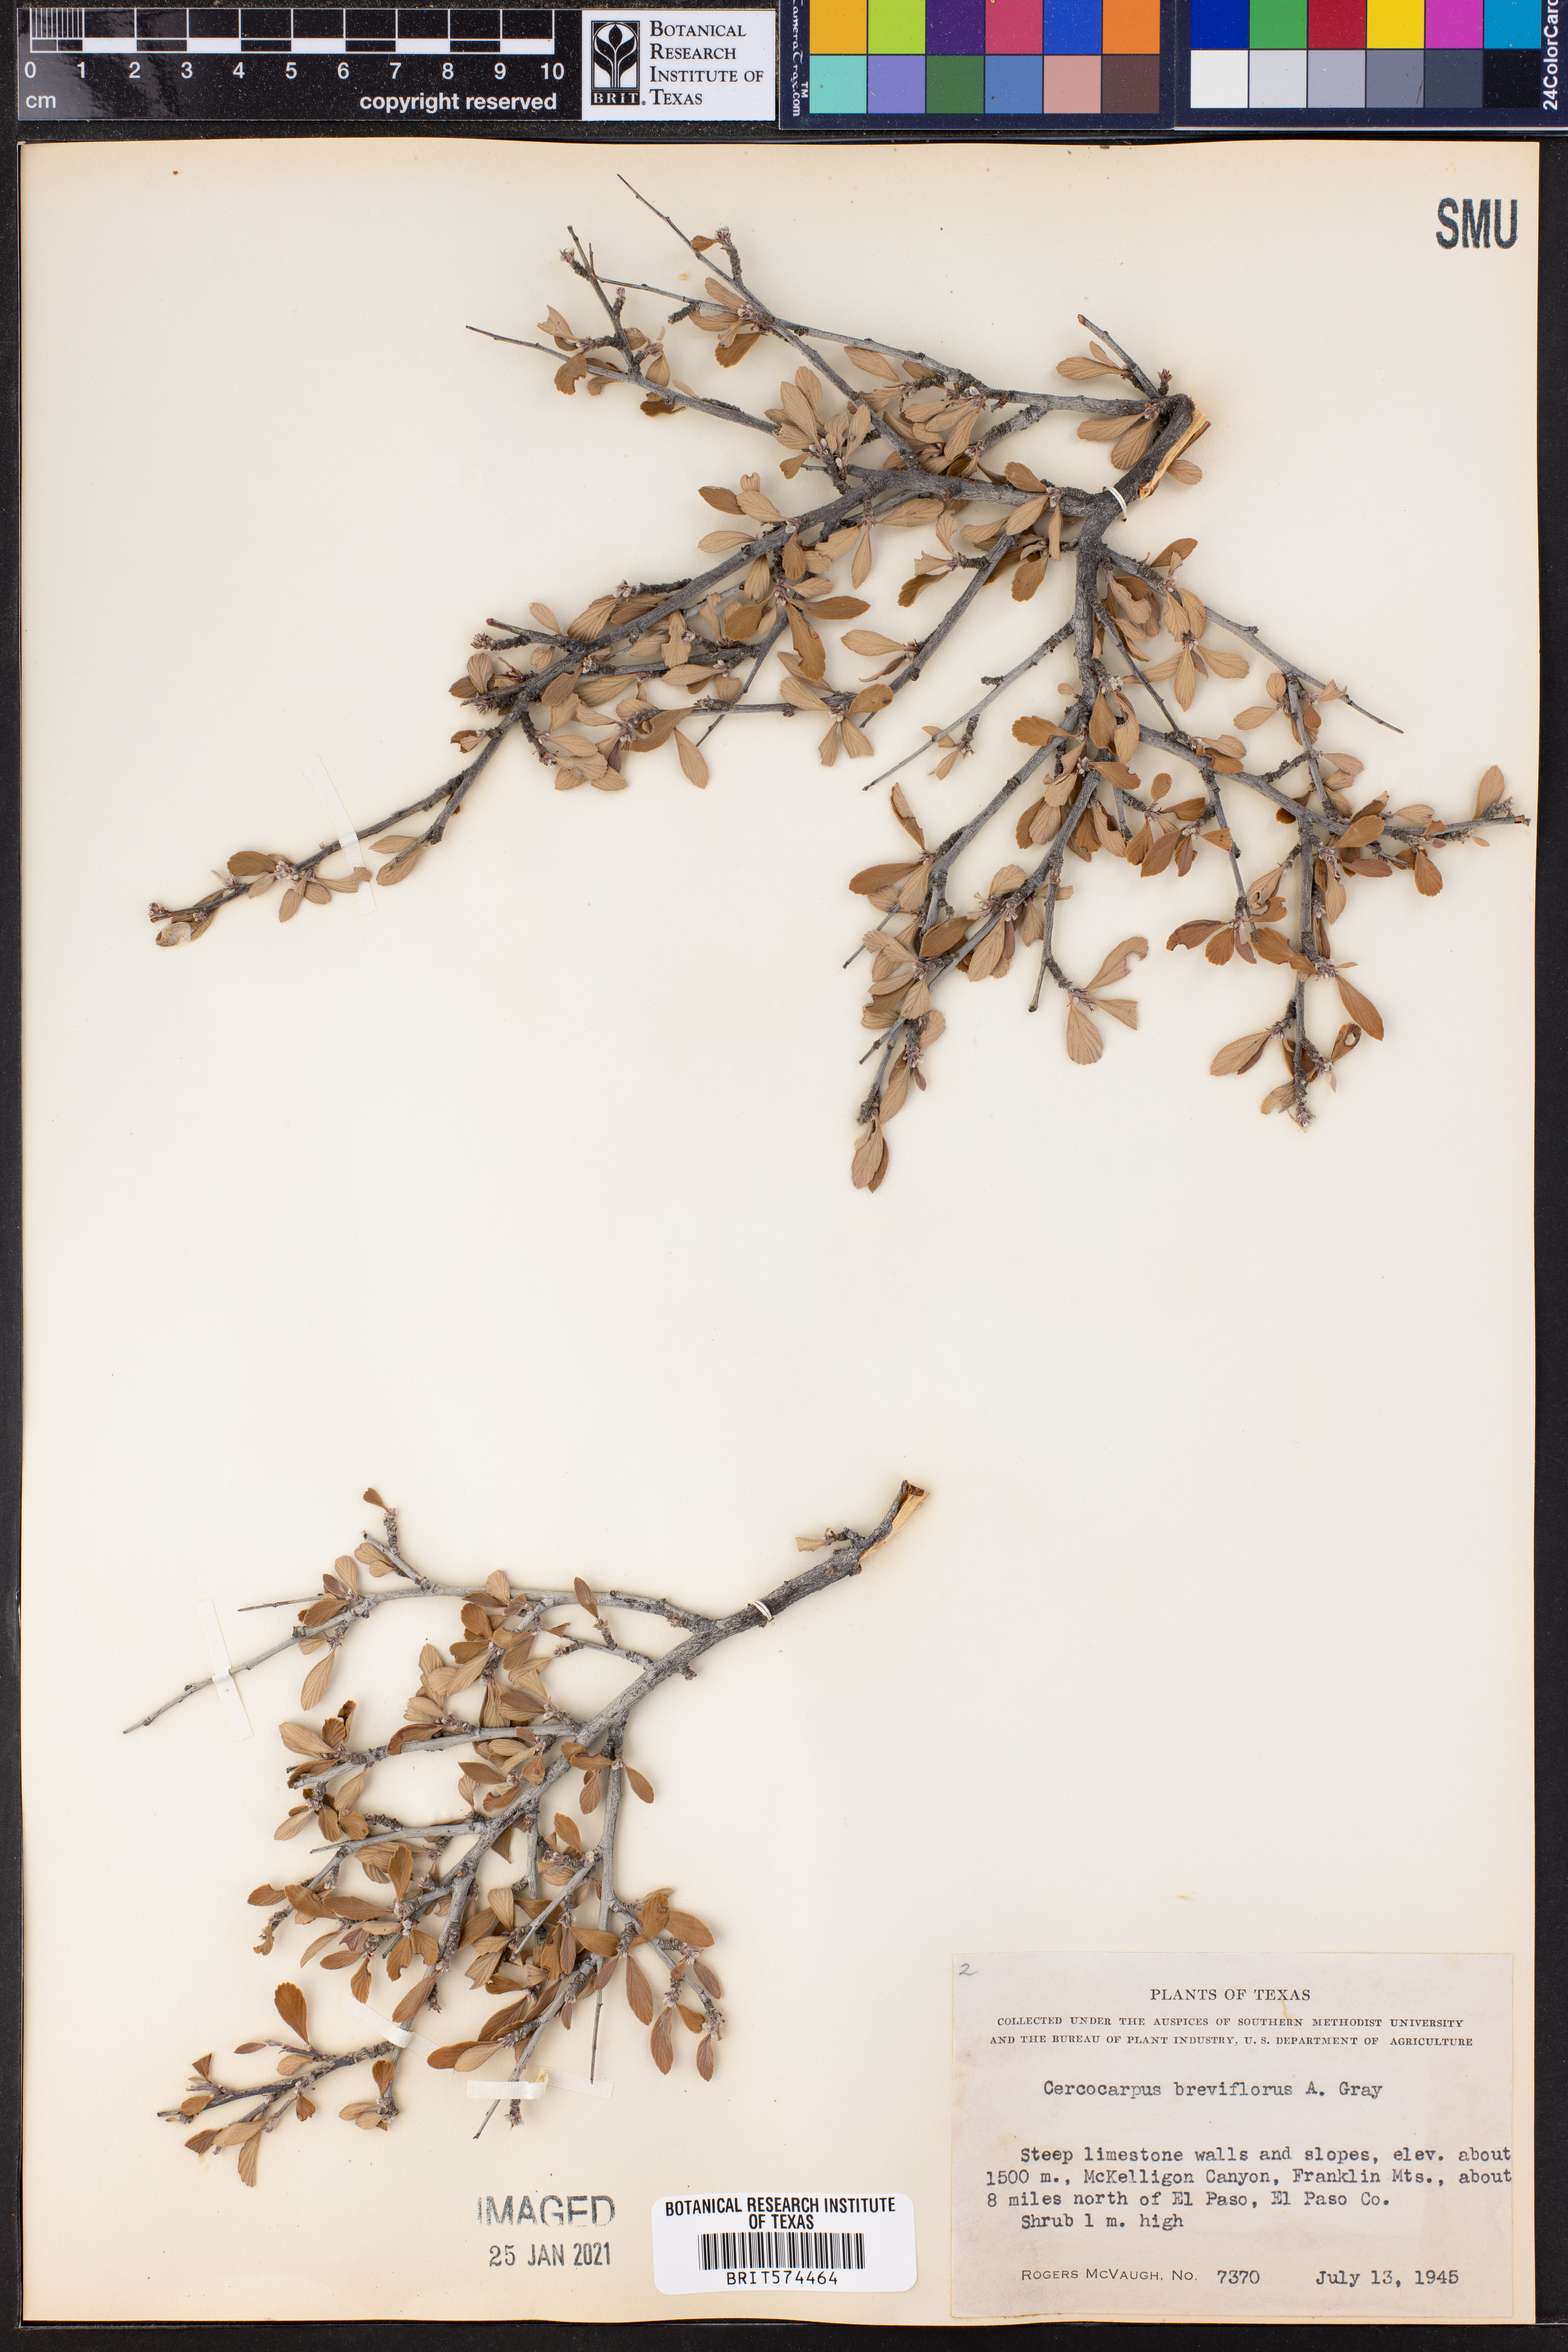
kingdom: Plantae
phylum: Tracheophyta
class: Magnoliopsida
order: Rosales
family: Rosaceae
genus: Cercocarpus
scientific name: Cercocarpus breviflorus
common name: Wright's mountain-mahogany
